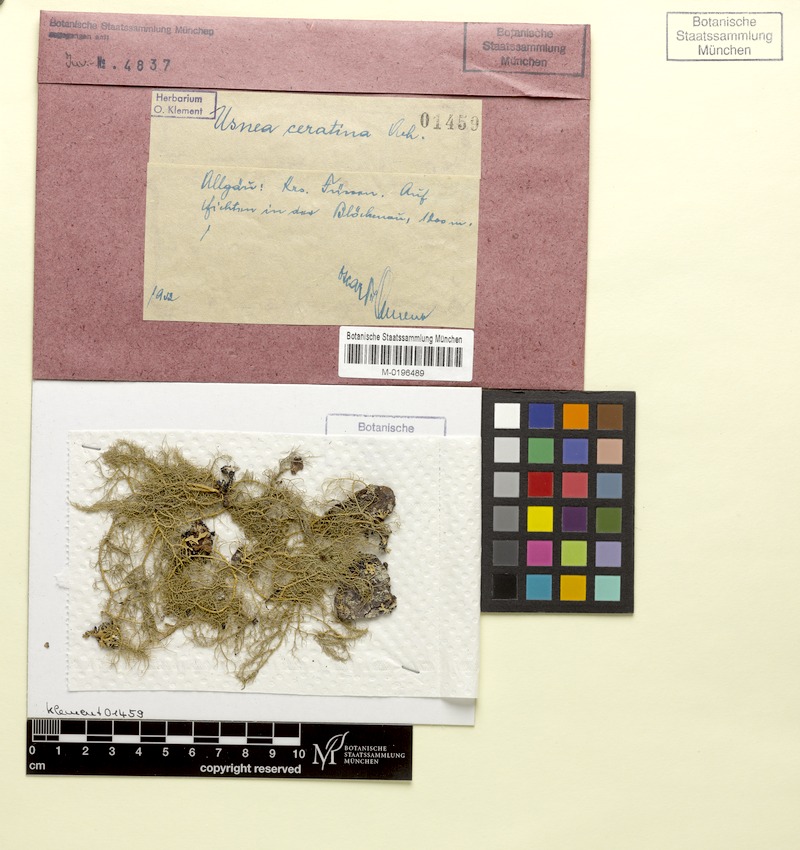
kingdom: Fungi
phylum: Ascomycota
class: Lecanoromycetes
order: Lecanorales
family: Parmeliaceae
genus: Usnea
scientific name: Usnea ceratina
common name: Warty beard lichen
